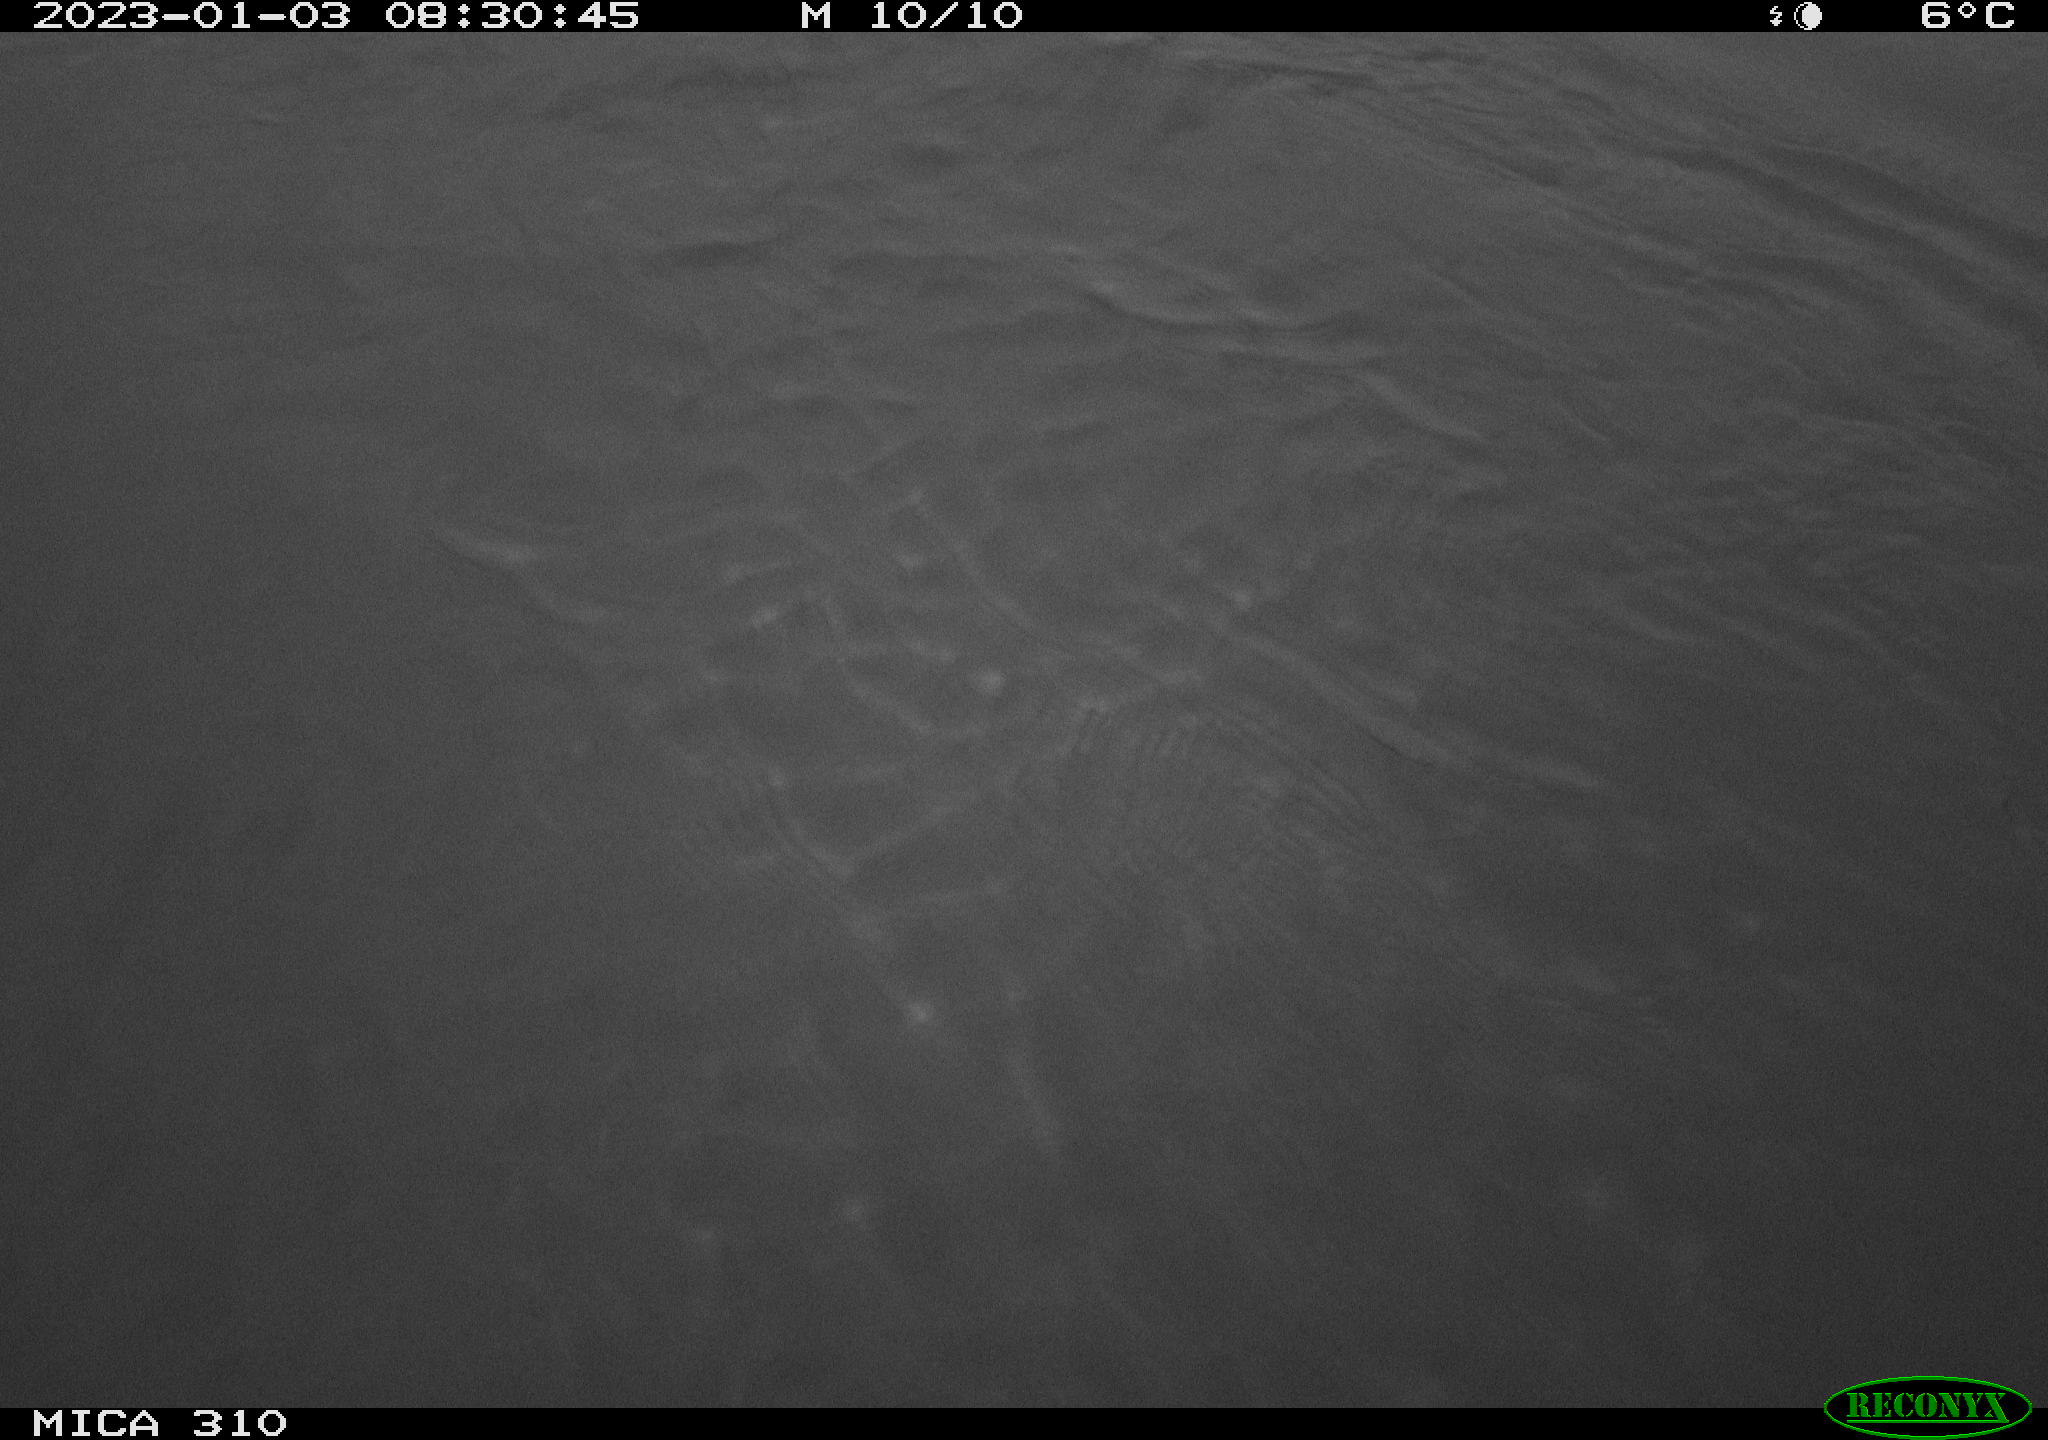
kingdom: Animalia
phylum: Chordata
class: Mammalia
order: Rodentia
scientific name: Rodentia
